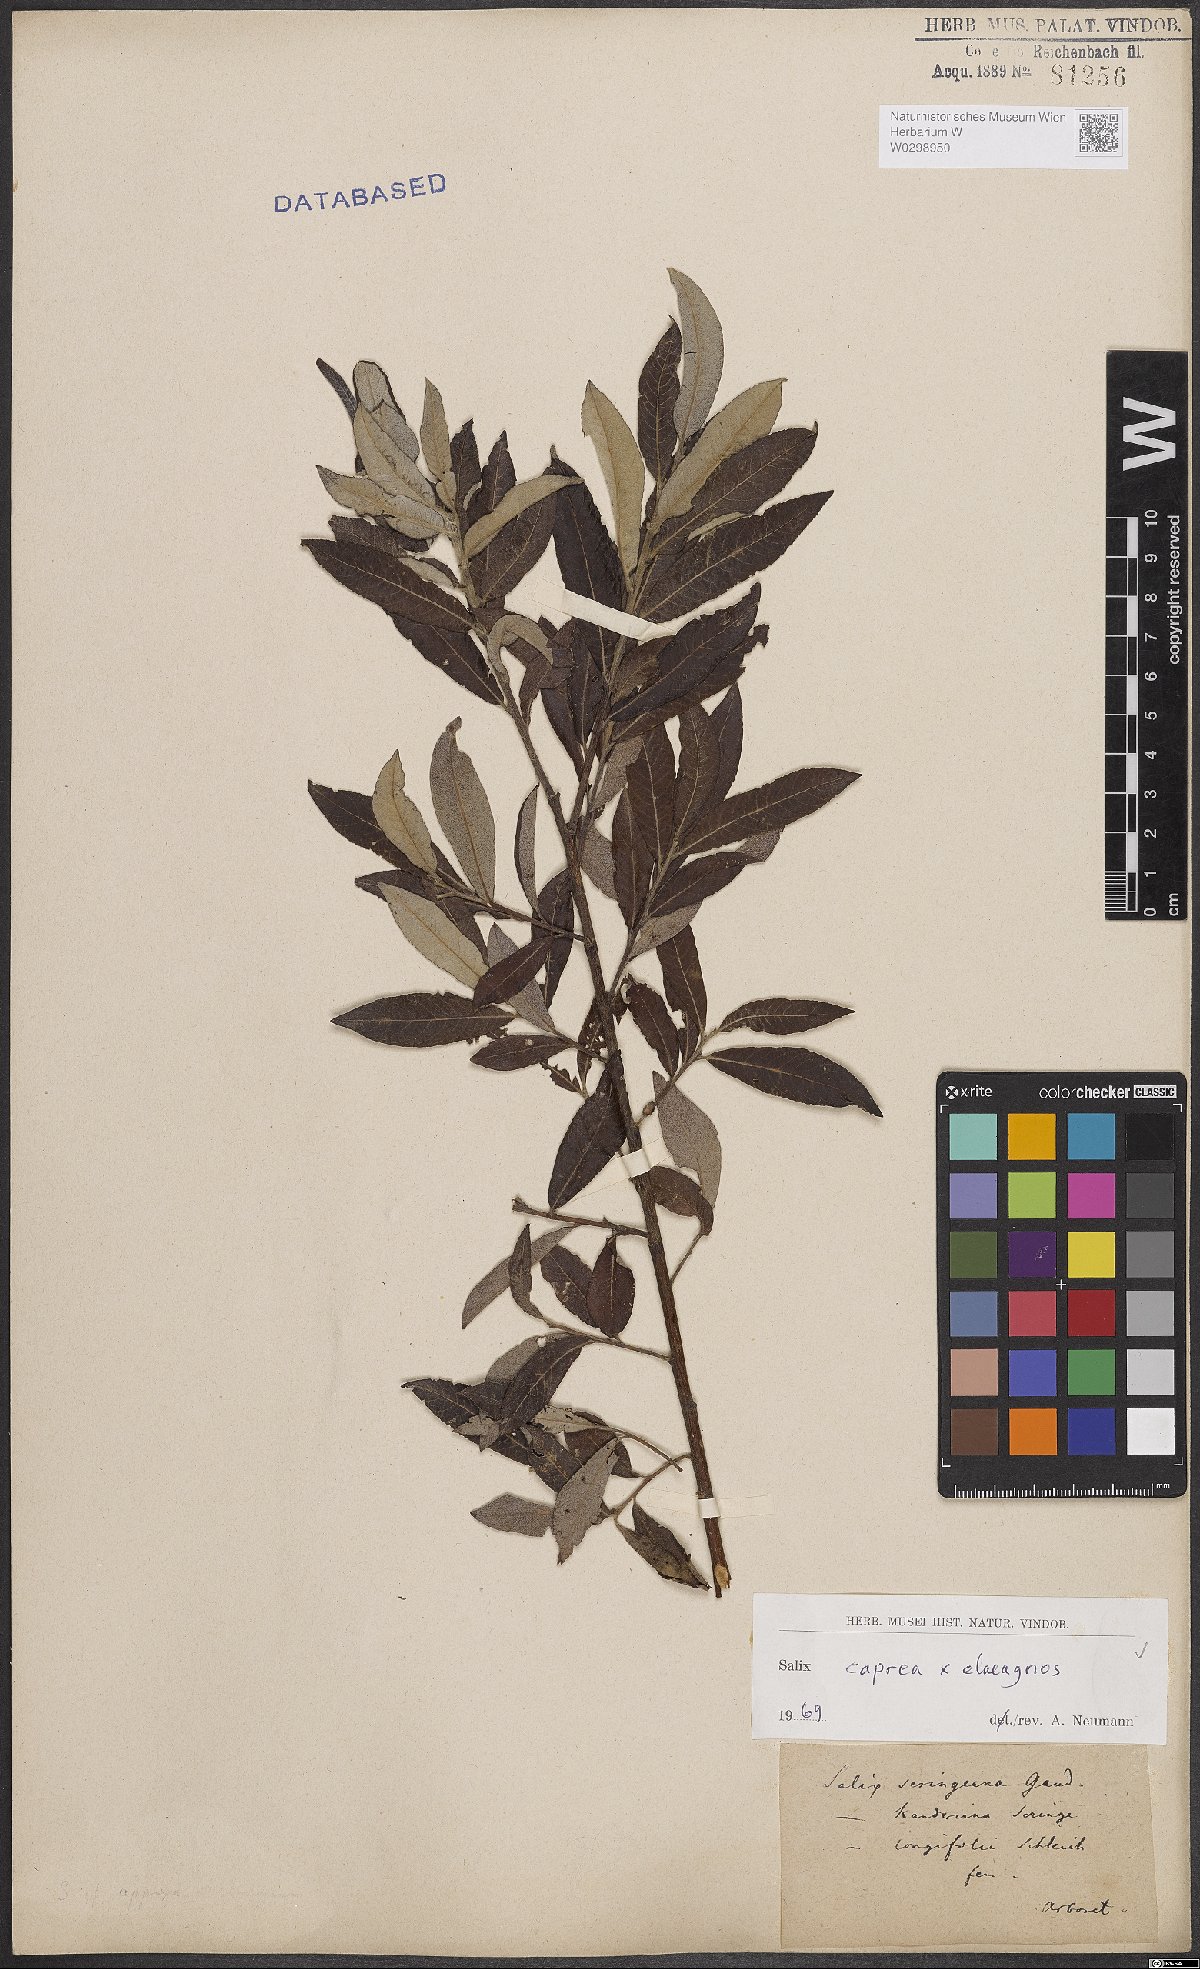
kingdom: Plantae
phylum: Tracheophyta
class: Magnoliopsida
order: Malpighiales
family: Salicaceae
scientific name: Salicaceae
